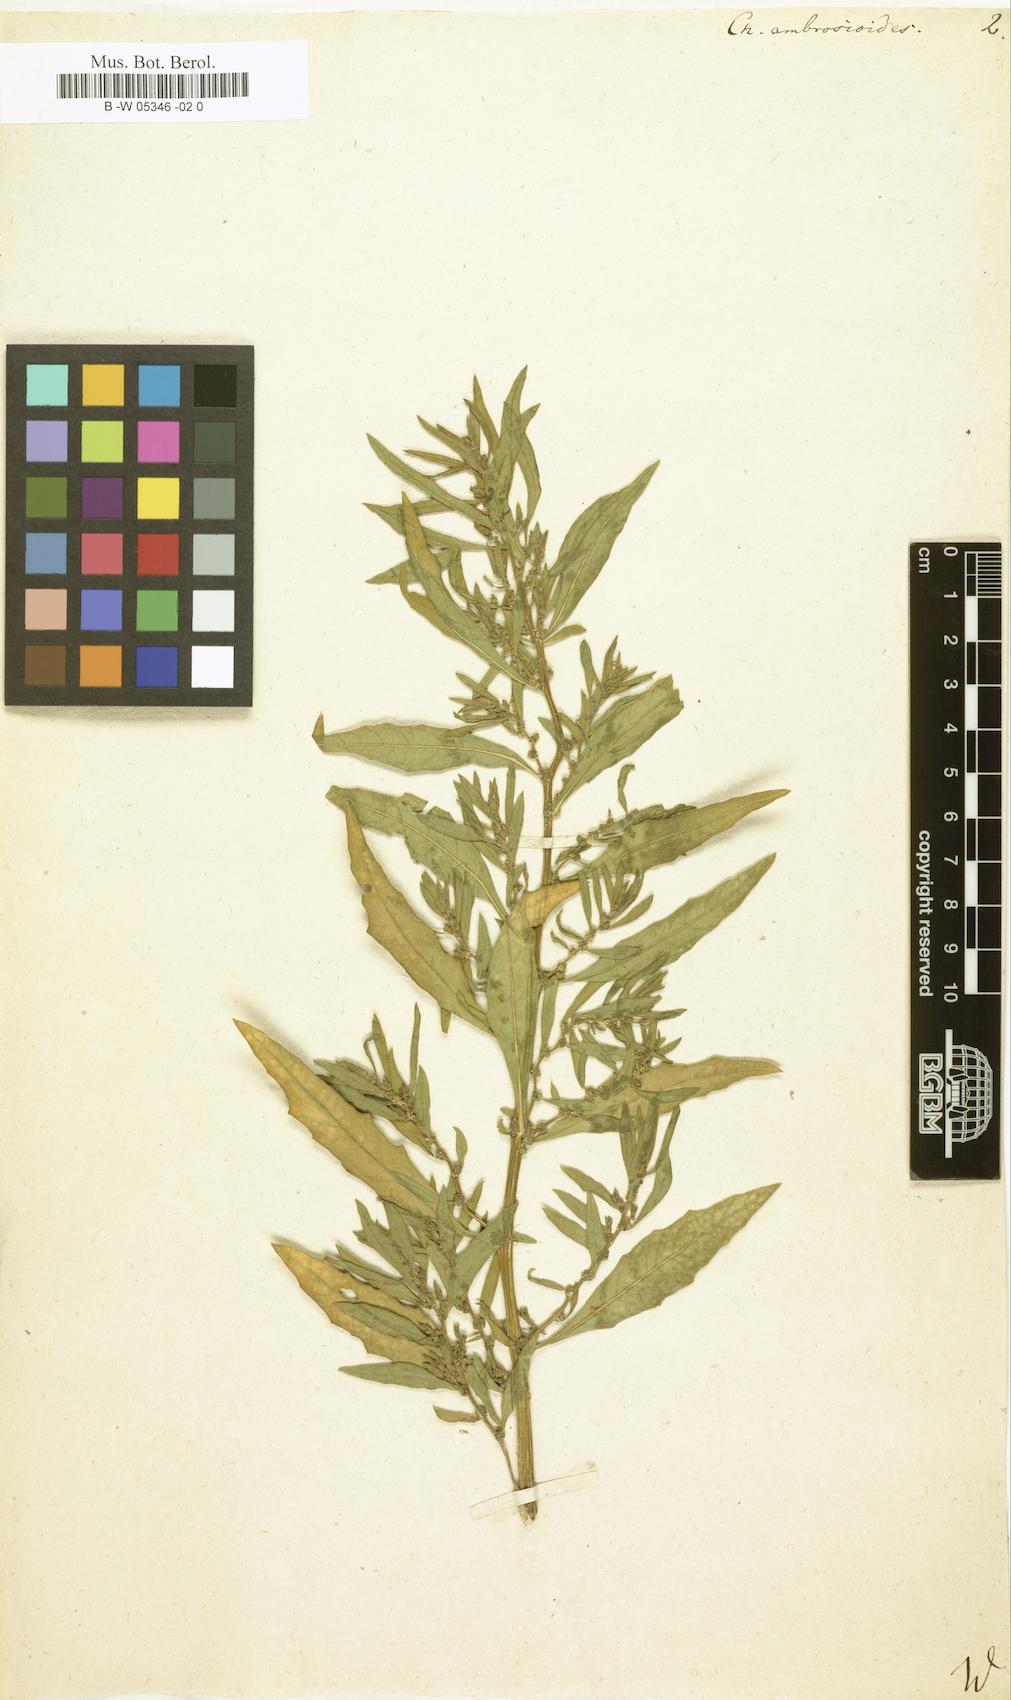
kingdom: Plantae
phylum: Tracheophyta
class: Magnoliopsida
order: Caryophyllales
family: Amaranthaceae
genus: Dysphania
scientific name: Dysphania ambrosioides
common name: Wormseed
